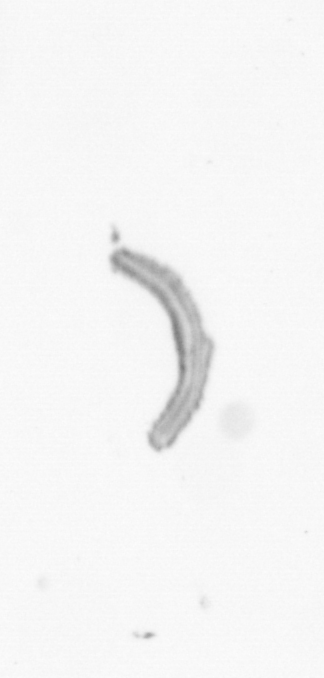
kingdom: Chromista
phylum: Ochrophyta
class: Bacillariophyceae
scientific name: Bacillariophyceae
